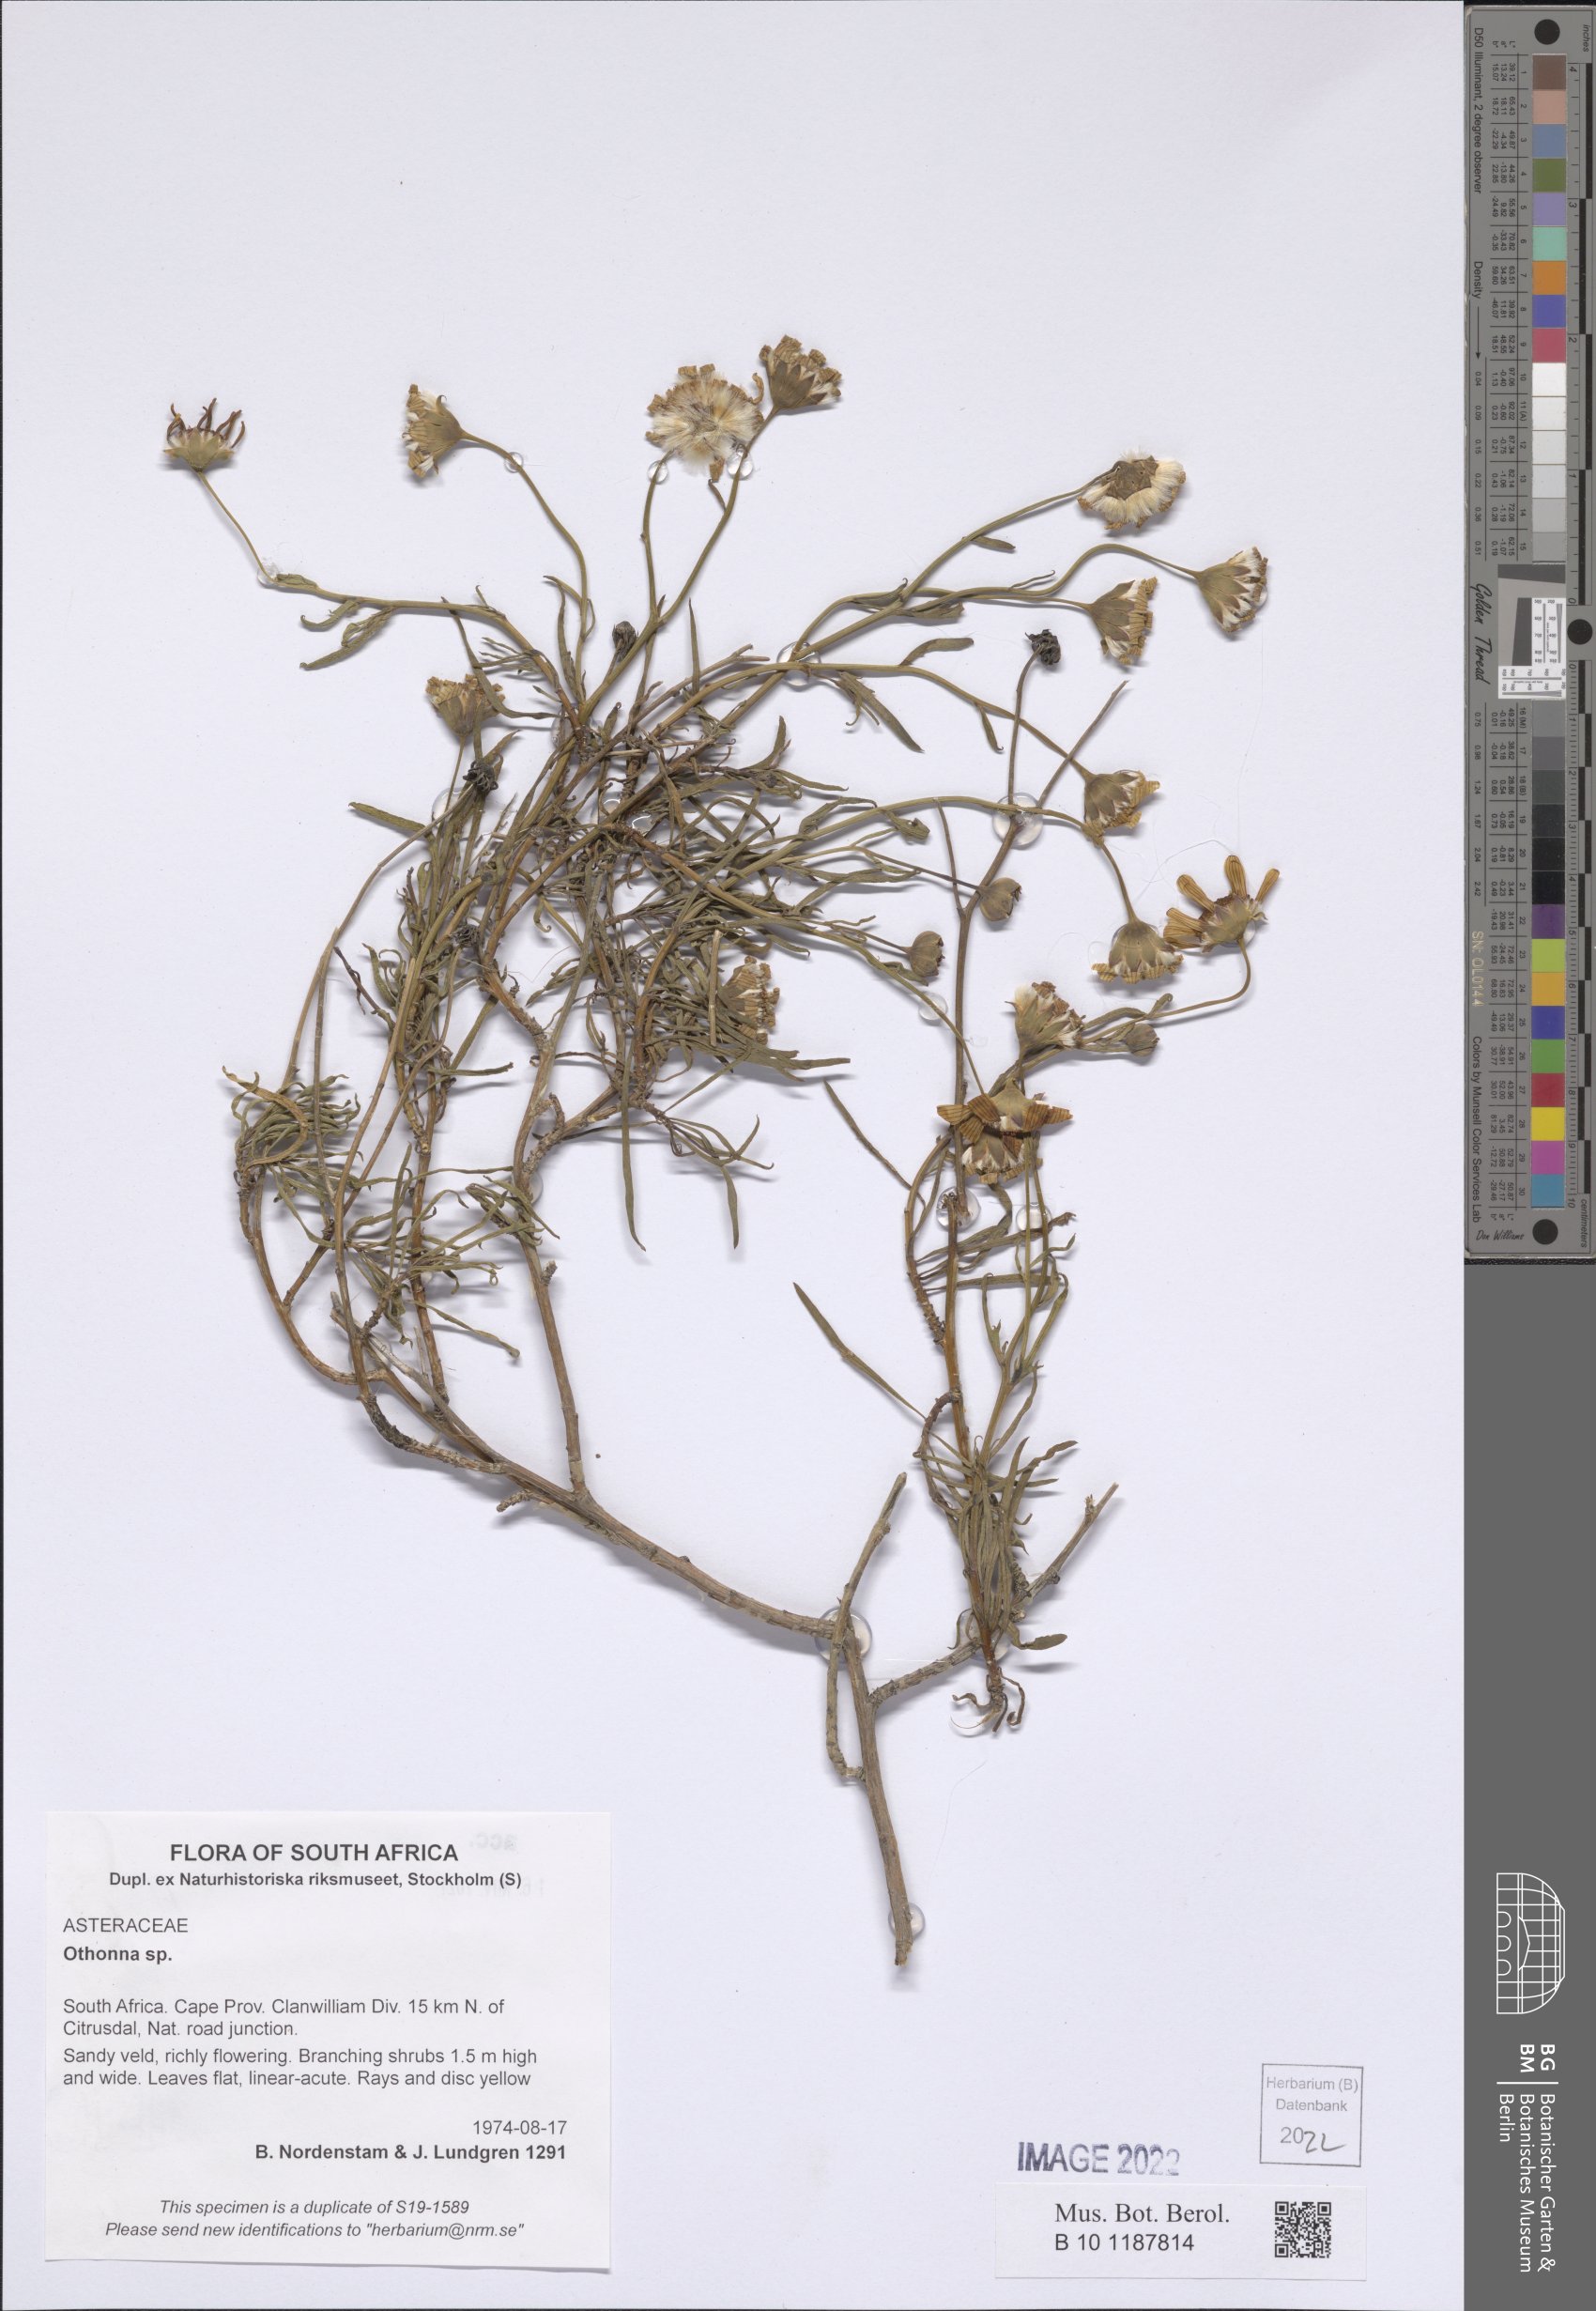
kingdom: Plantae
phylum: Tracheophyta
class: Magnoliopsida
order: Asterales
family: Asteraceae
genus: Othonna
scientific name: Othonna
